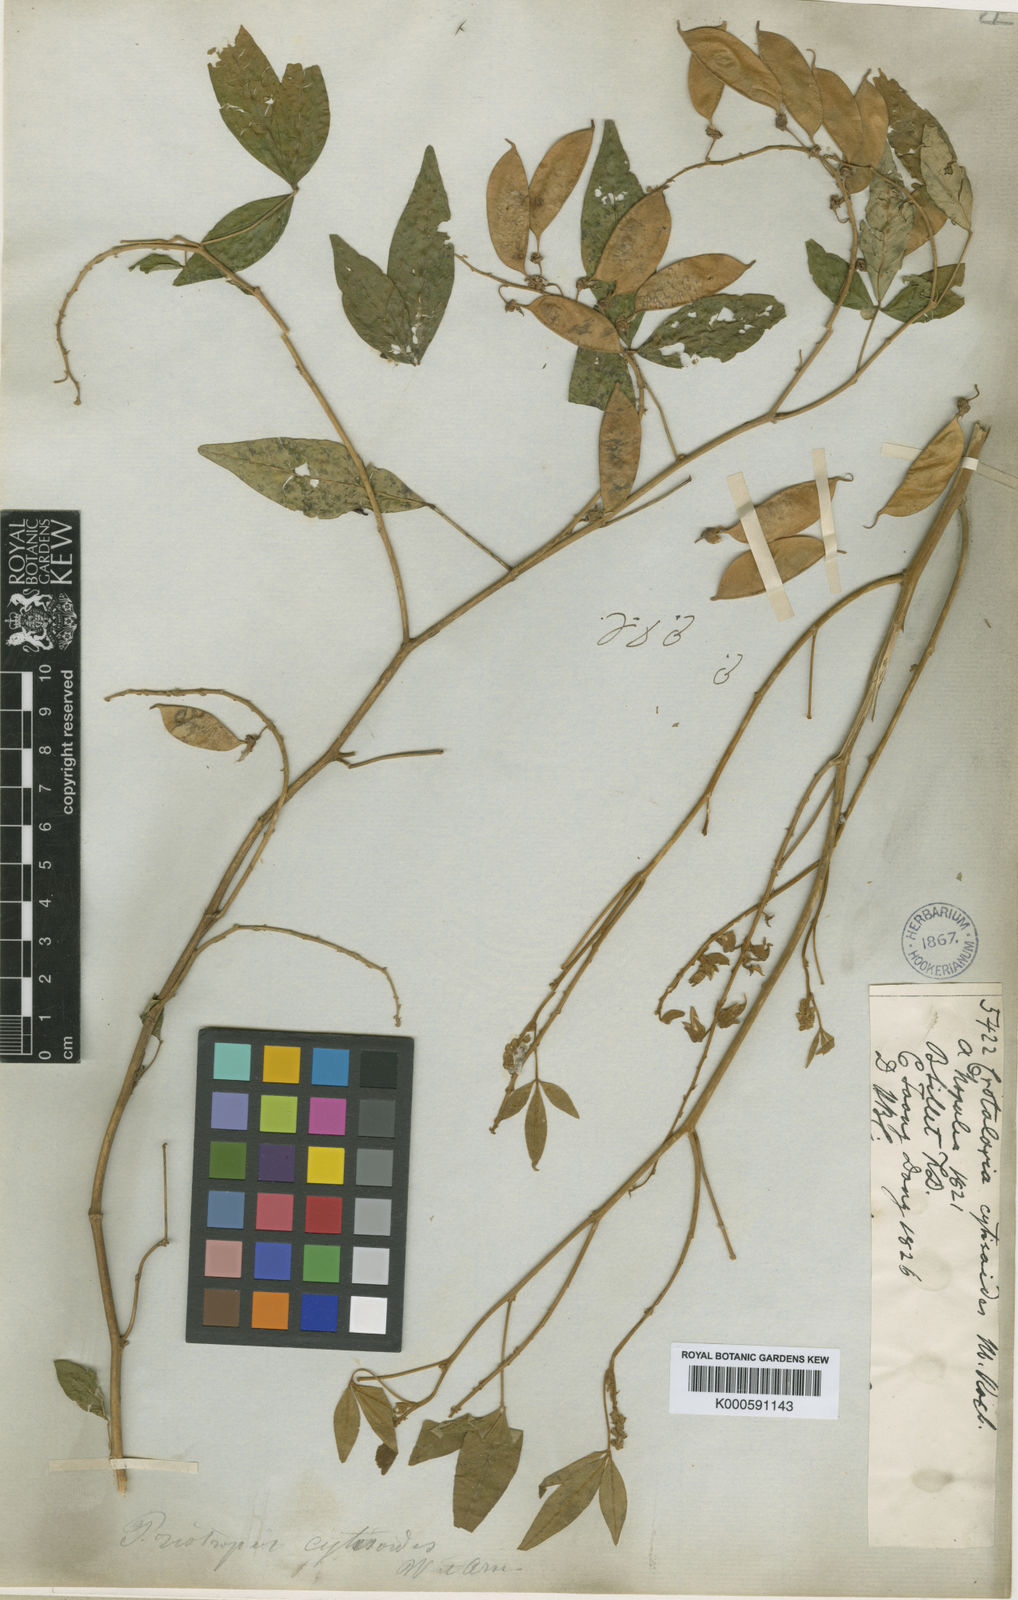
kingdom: Plantae
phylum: Tracheophyta
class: Magnoliopsida
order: Fabales
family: Fabaceae
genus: Crotalaria
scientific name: Crotalaria
